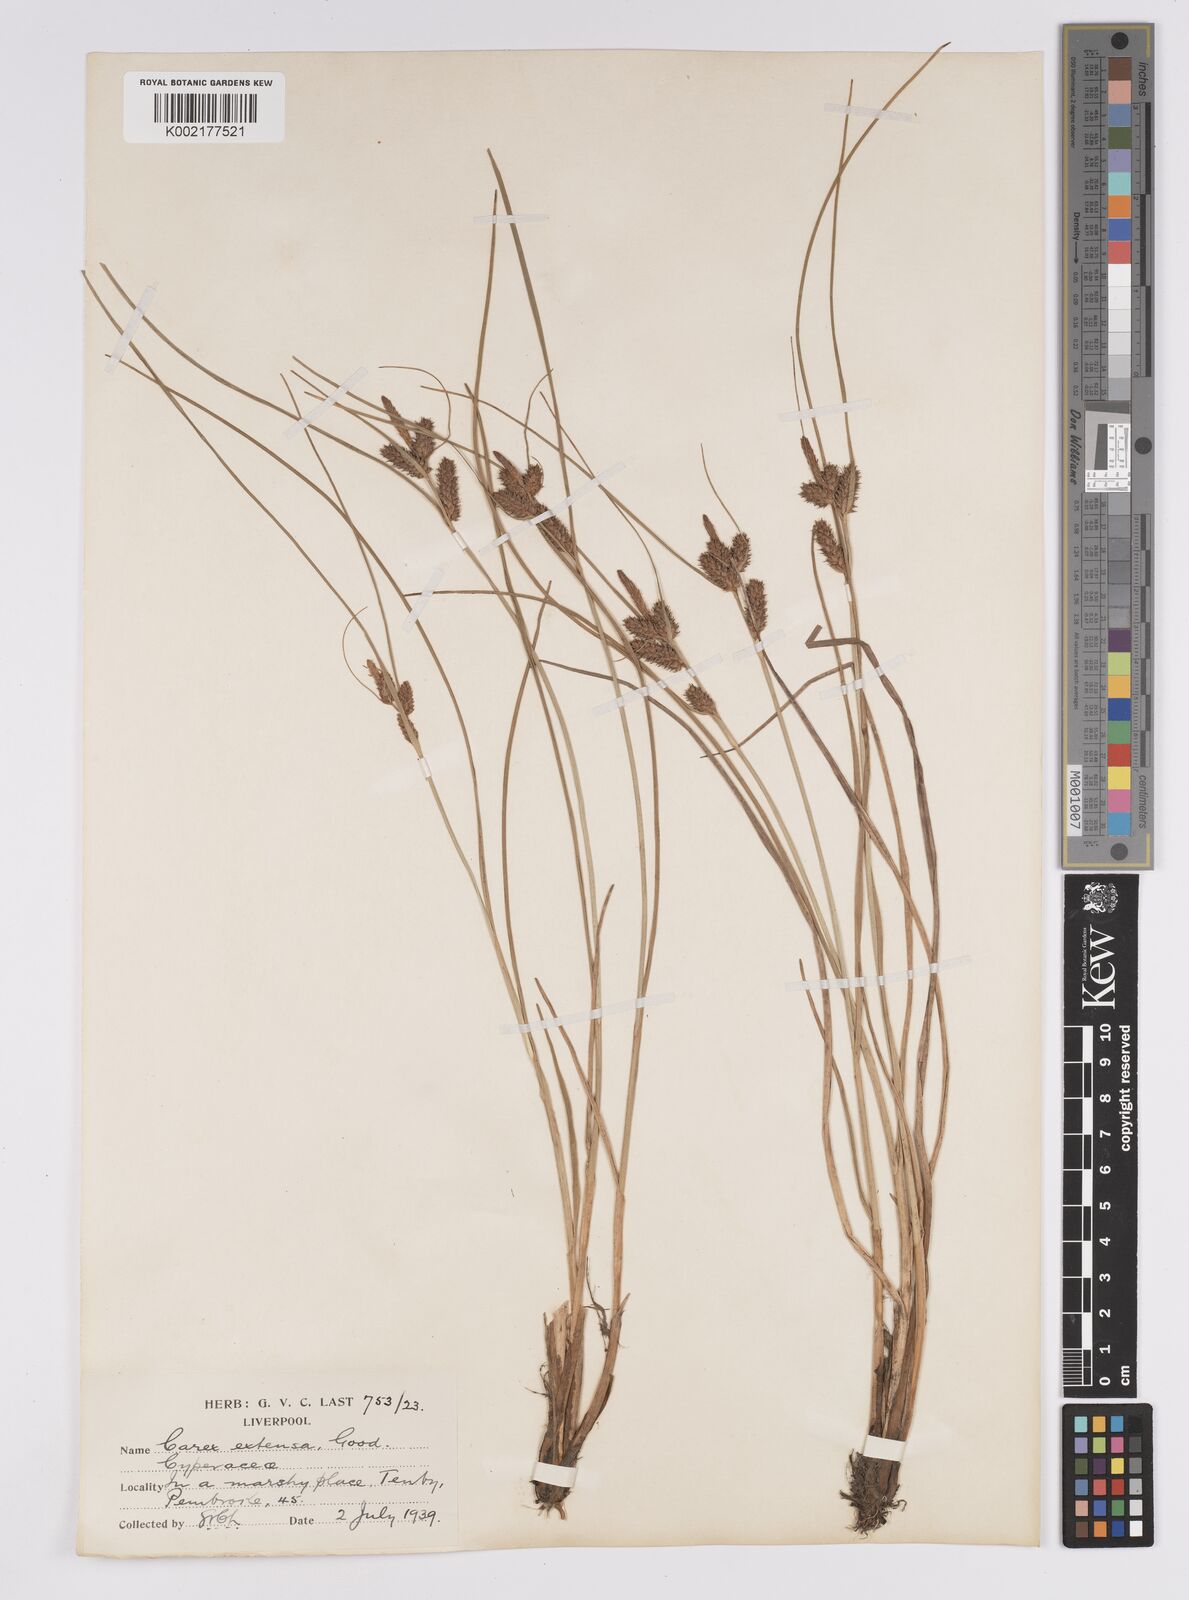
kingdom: Plantae
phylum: Tracheophyta
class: Liliopsida
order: Poales
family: Cyperaceae
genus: Carex
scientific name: Carex extensa
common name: Long-bracted sedge
